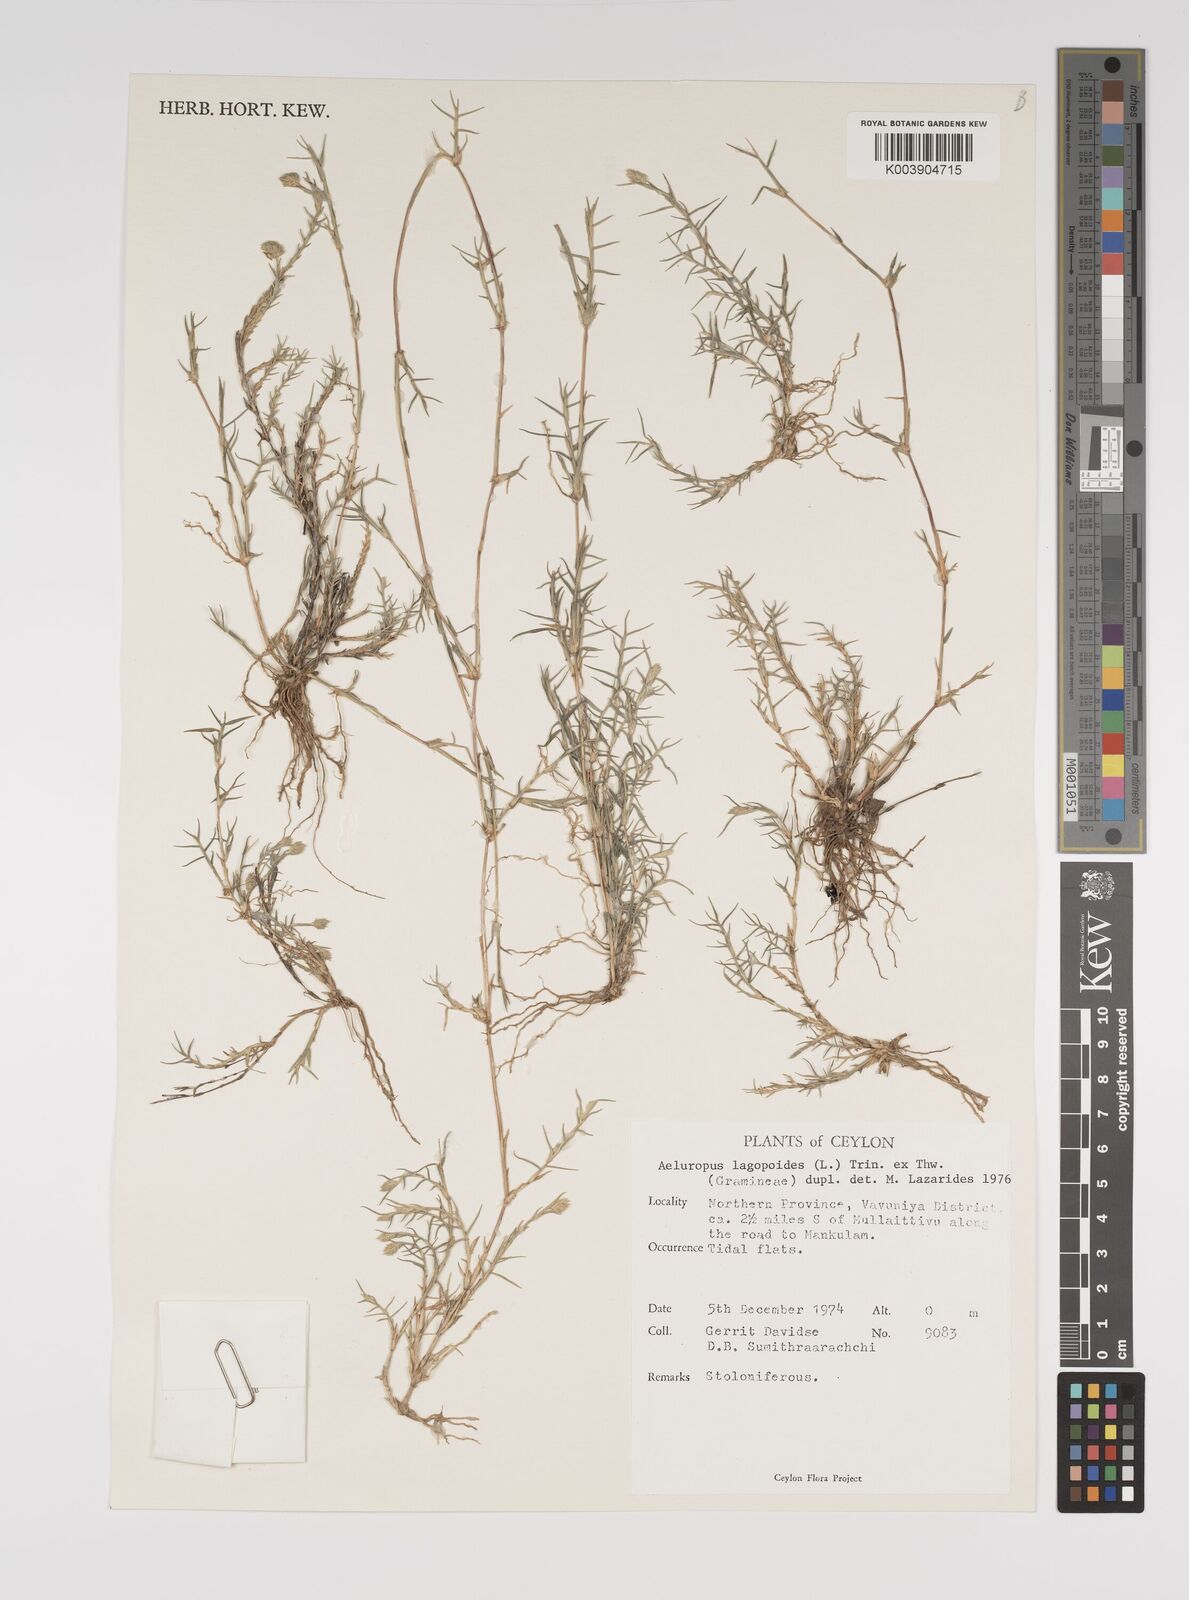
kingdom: Plantae
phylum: Tracheophyta
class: Liliopsida
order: Poales
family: Poaceae
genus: Aeluropus
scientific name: Aeluropus lagopoides
